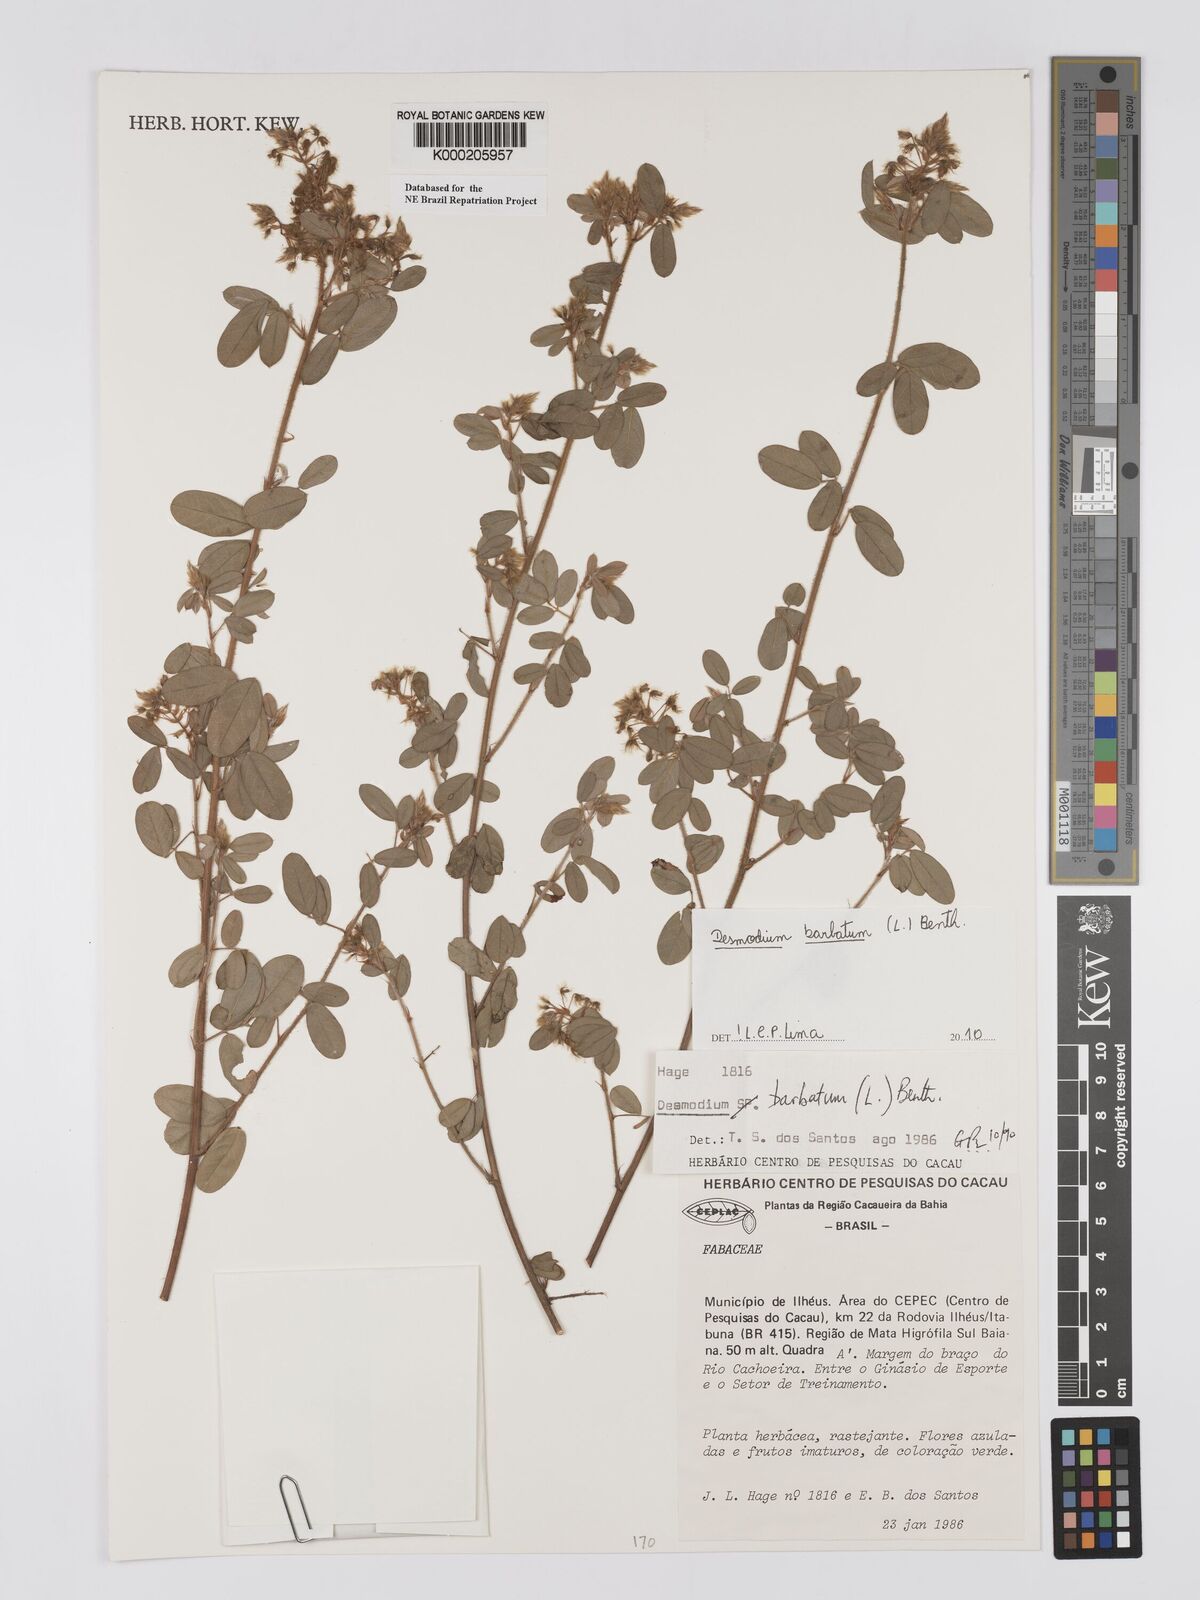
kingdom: Plantae
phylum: Tracheophyta
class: Magnoliopsida
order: Fabales
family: Fabaceae
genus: Grona
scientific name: Grona barbata
